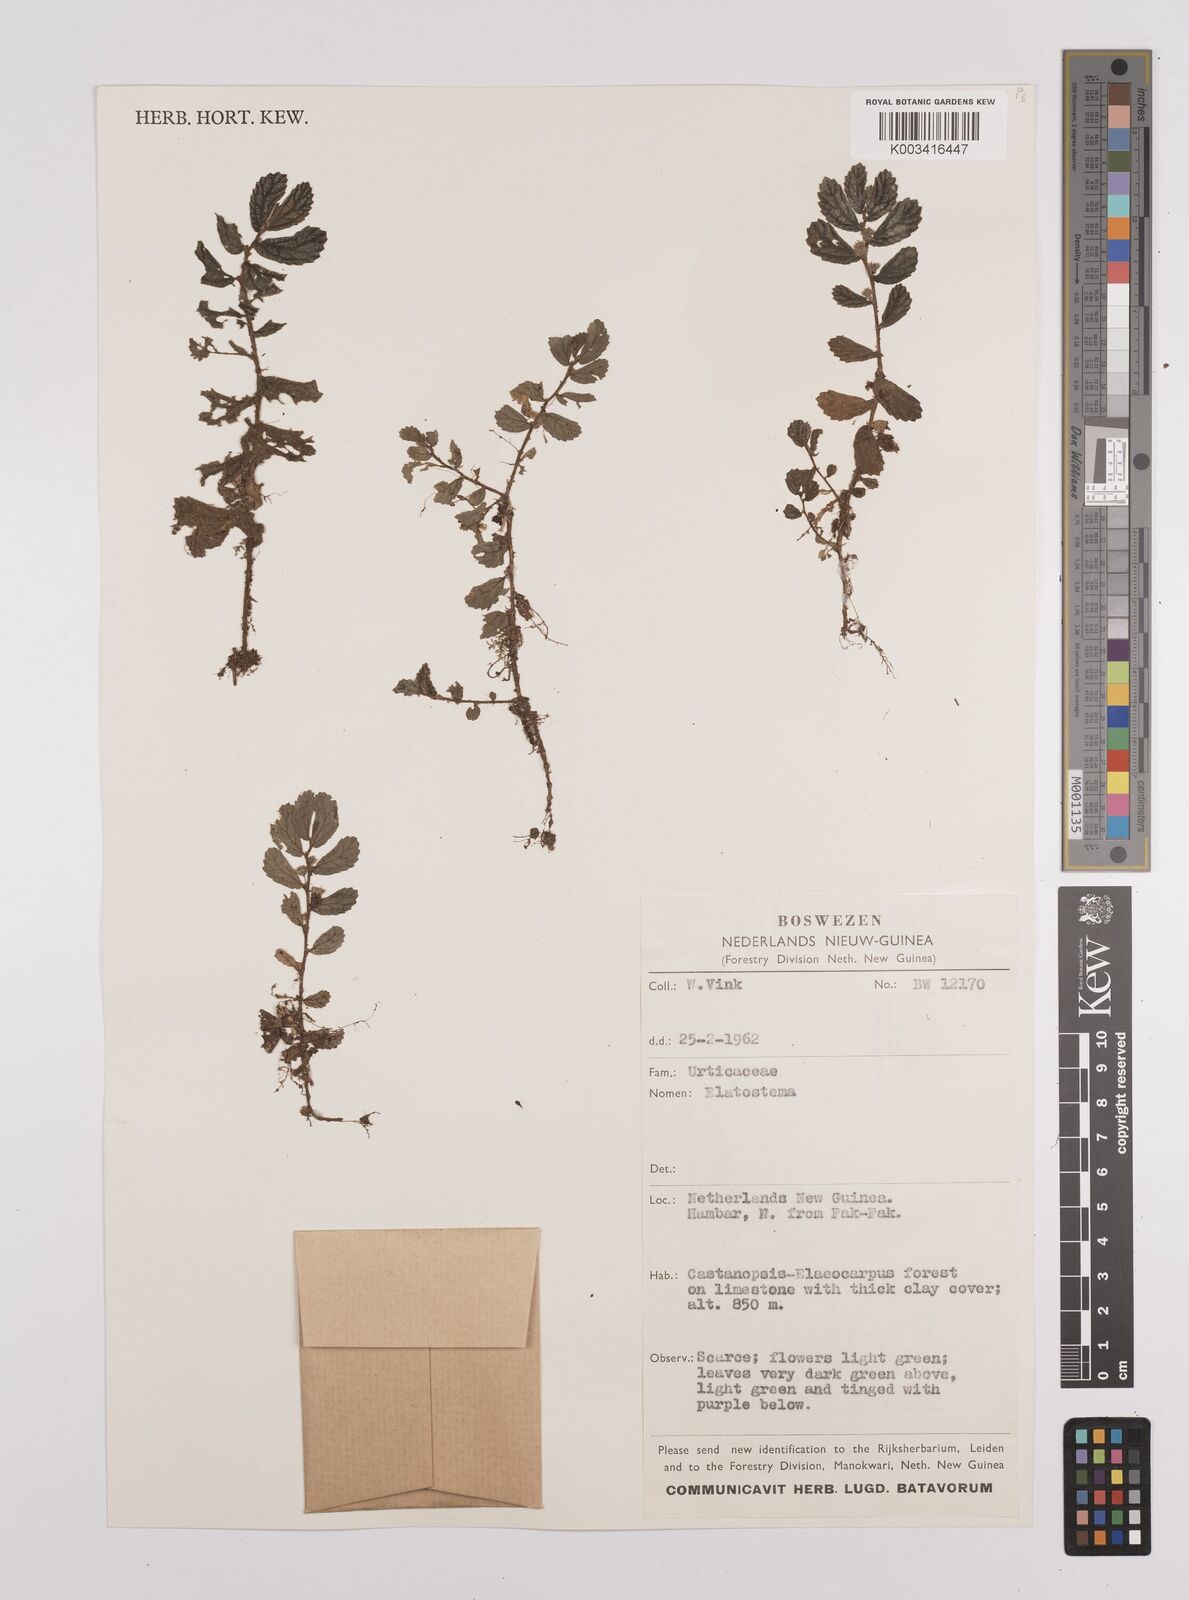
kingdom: Plantae
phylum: Tracheophyta
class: Magnoliopsida
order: Rosales
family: Urticaceae
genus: Elatostema
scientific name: Elatostema
